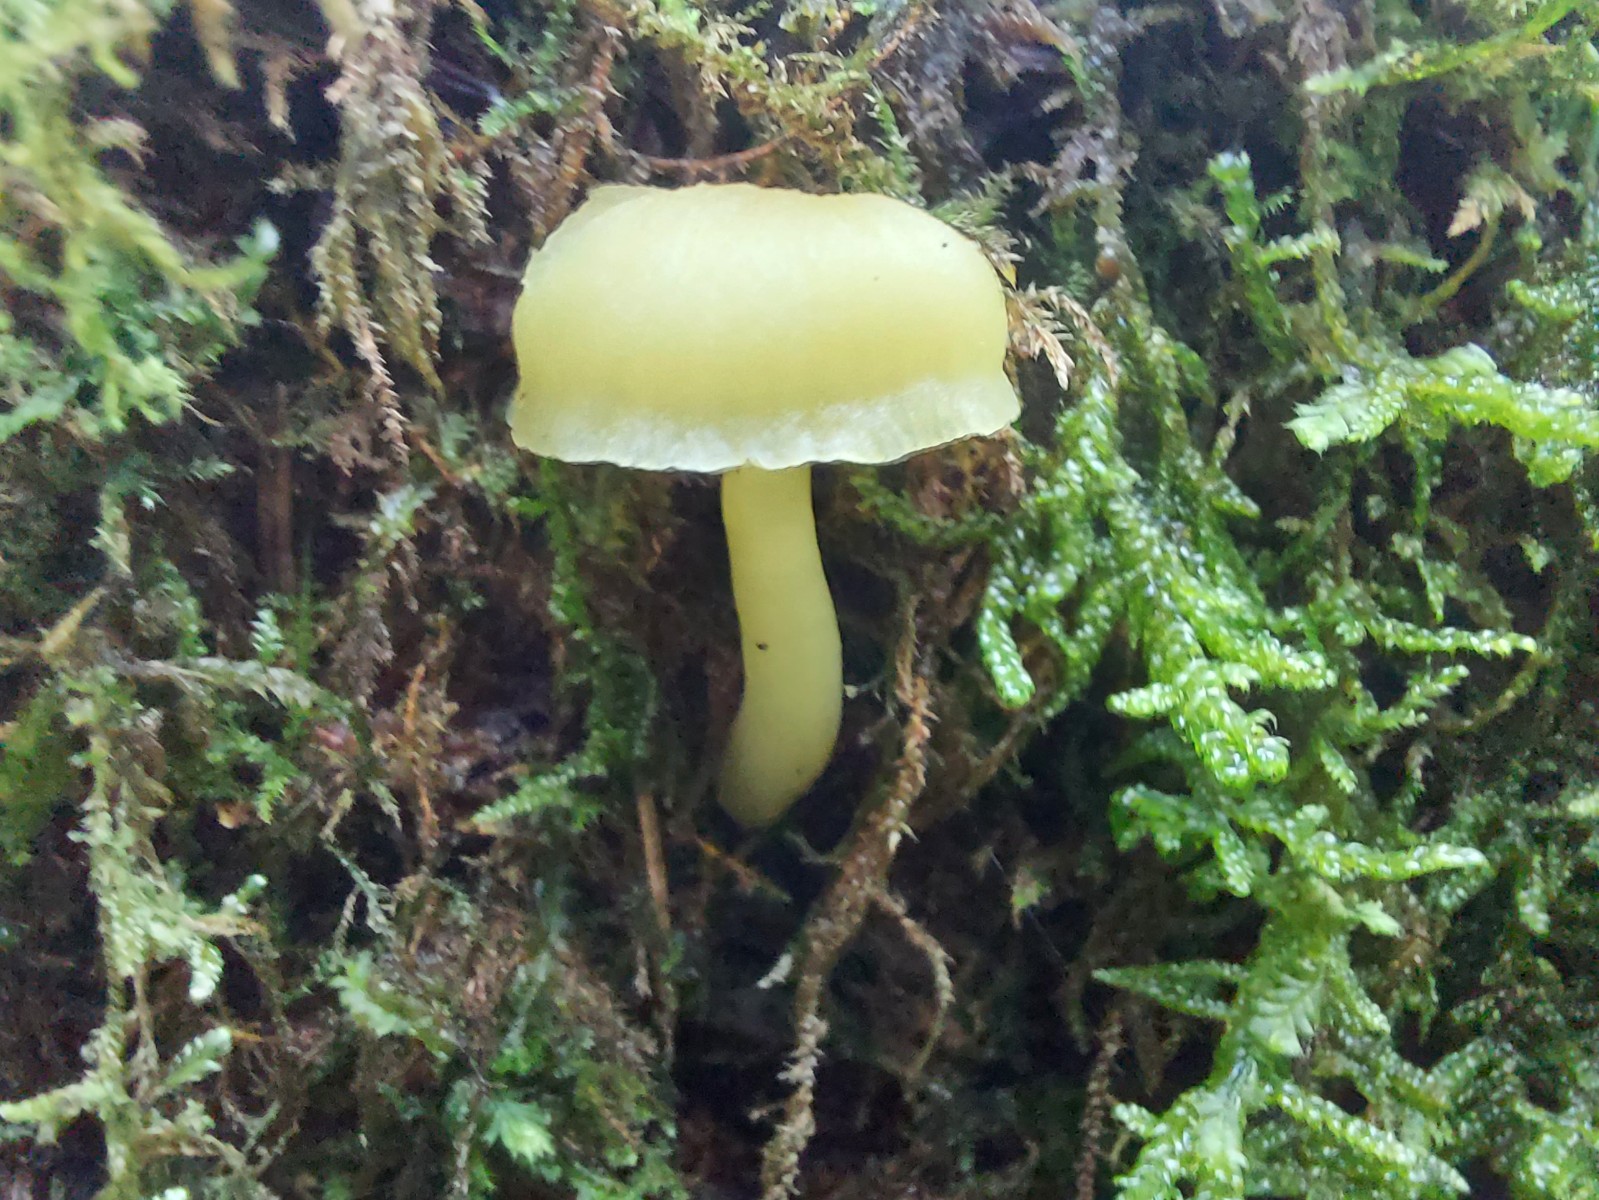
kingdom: Fungi
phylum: Basidiomycota
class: Agaricomycetes
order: Agaricales
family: Hygrophoraceae
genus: Chrysomphalina
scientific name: Chrysomphalina grossula
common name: stød-gyldenblad
